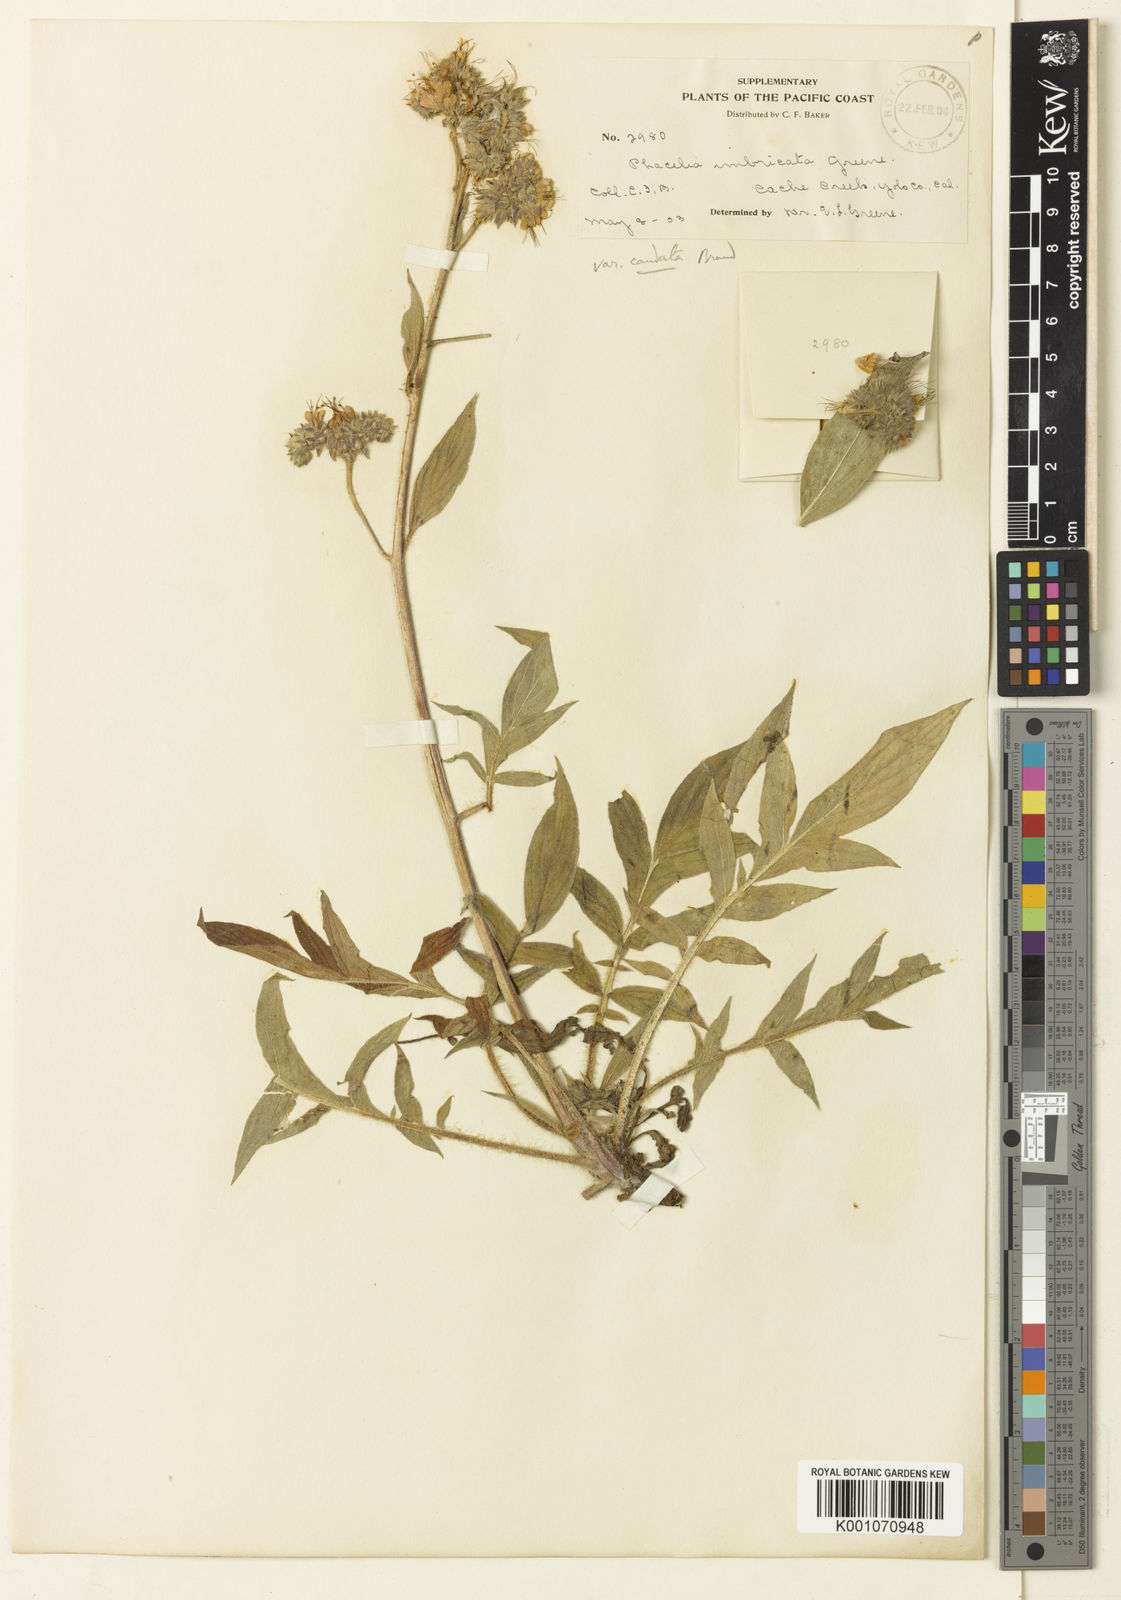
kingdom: Plantae
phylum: Tracheophyta
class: Magnoliopsida
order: Boraginales
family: Hydrophyllaceae
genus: Phacelia
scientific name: Phacelia imbricata
